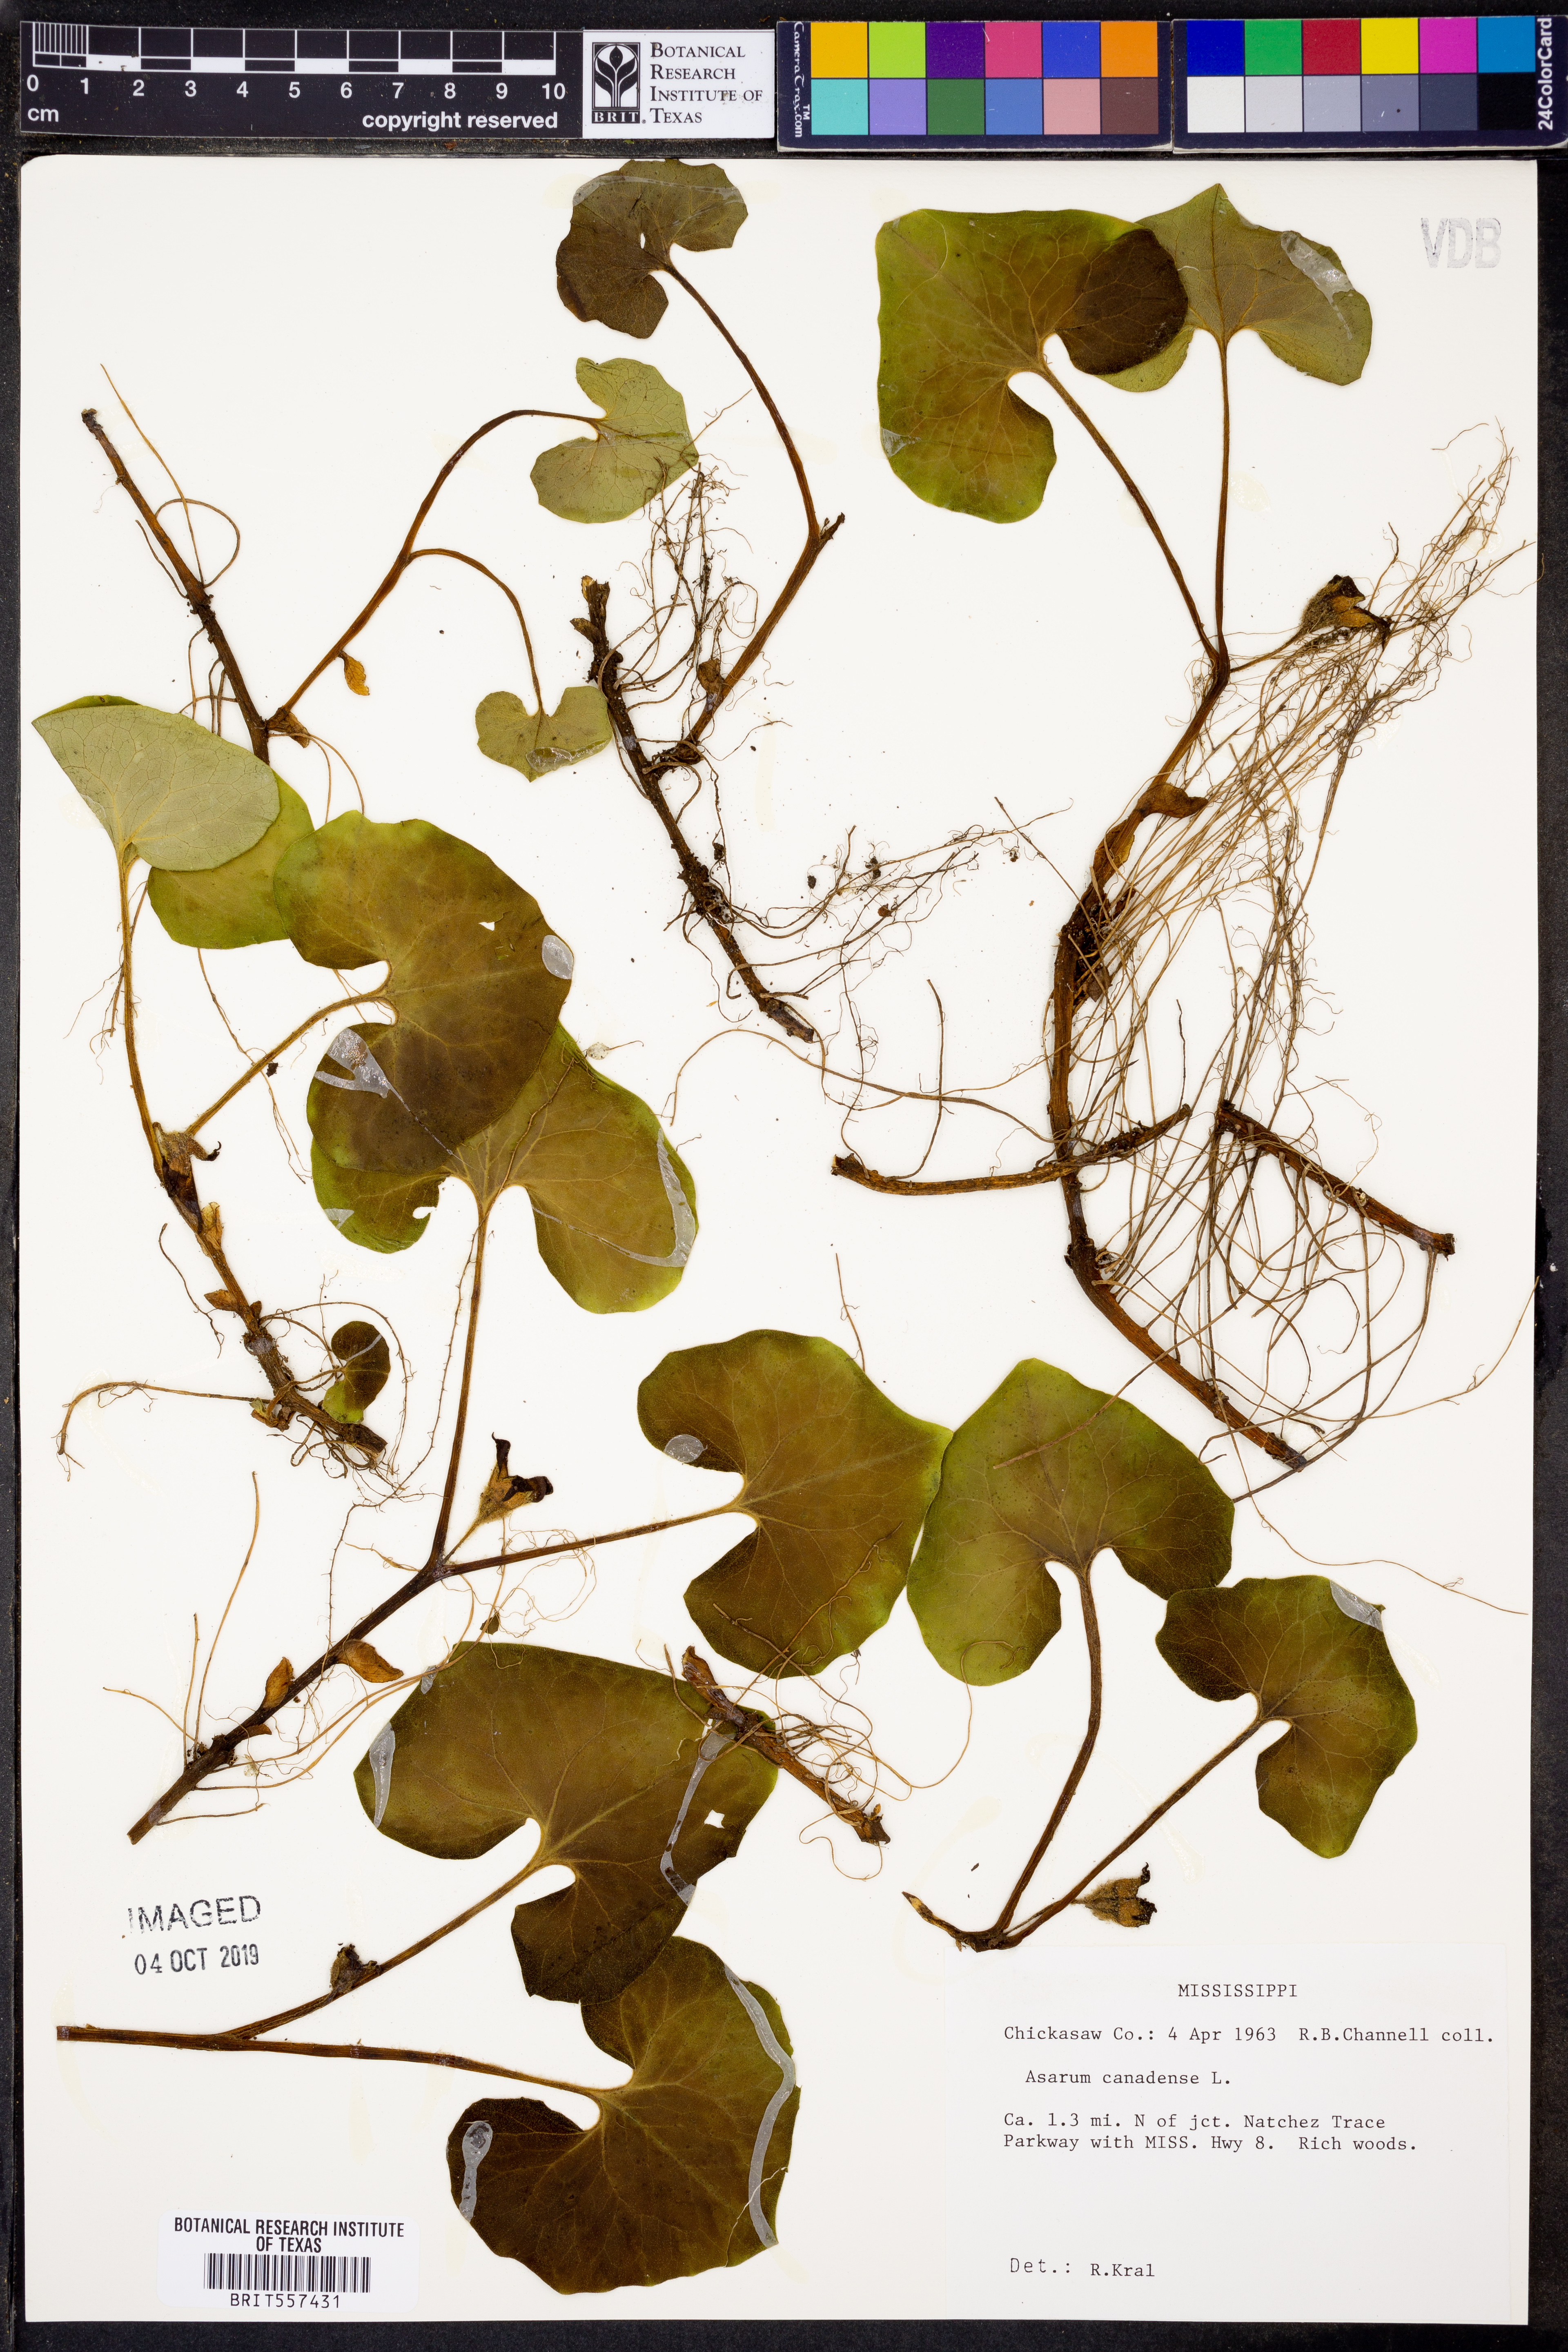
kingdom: Plantae
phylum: Tracheophyta
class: Magnoliopsida
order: Piperales
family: Aristolochiaceae
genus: Asarum
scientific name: Asarum canadense
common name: Wild ginger
